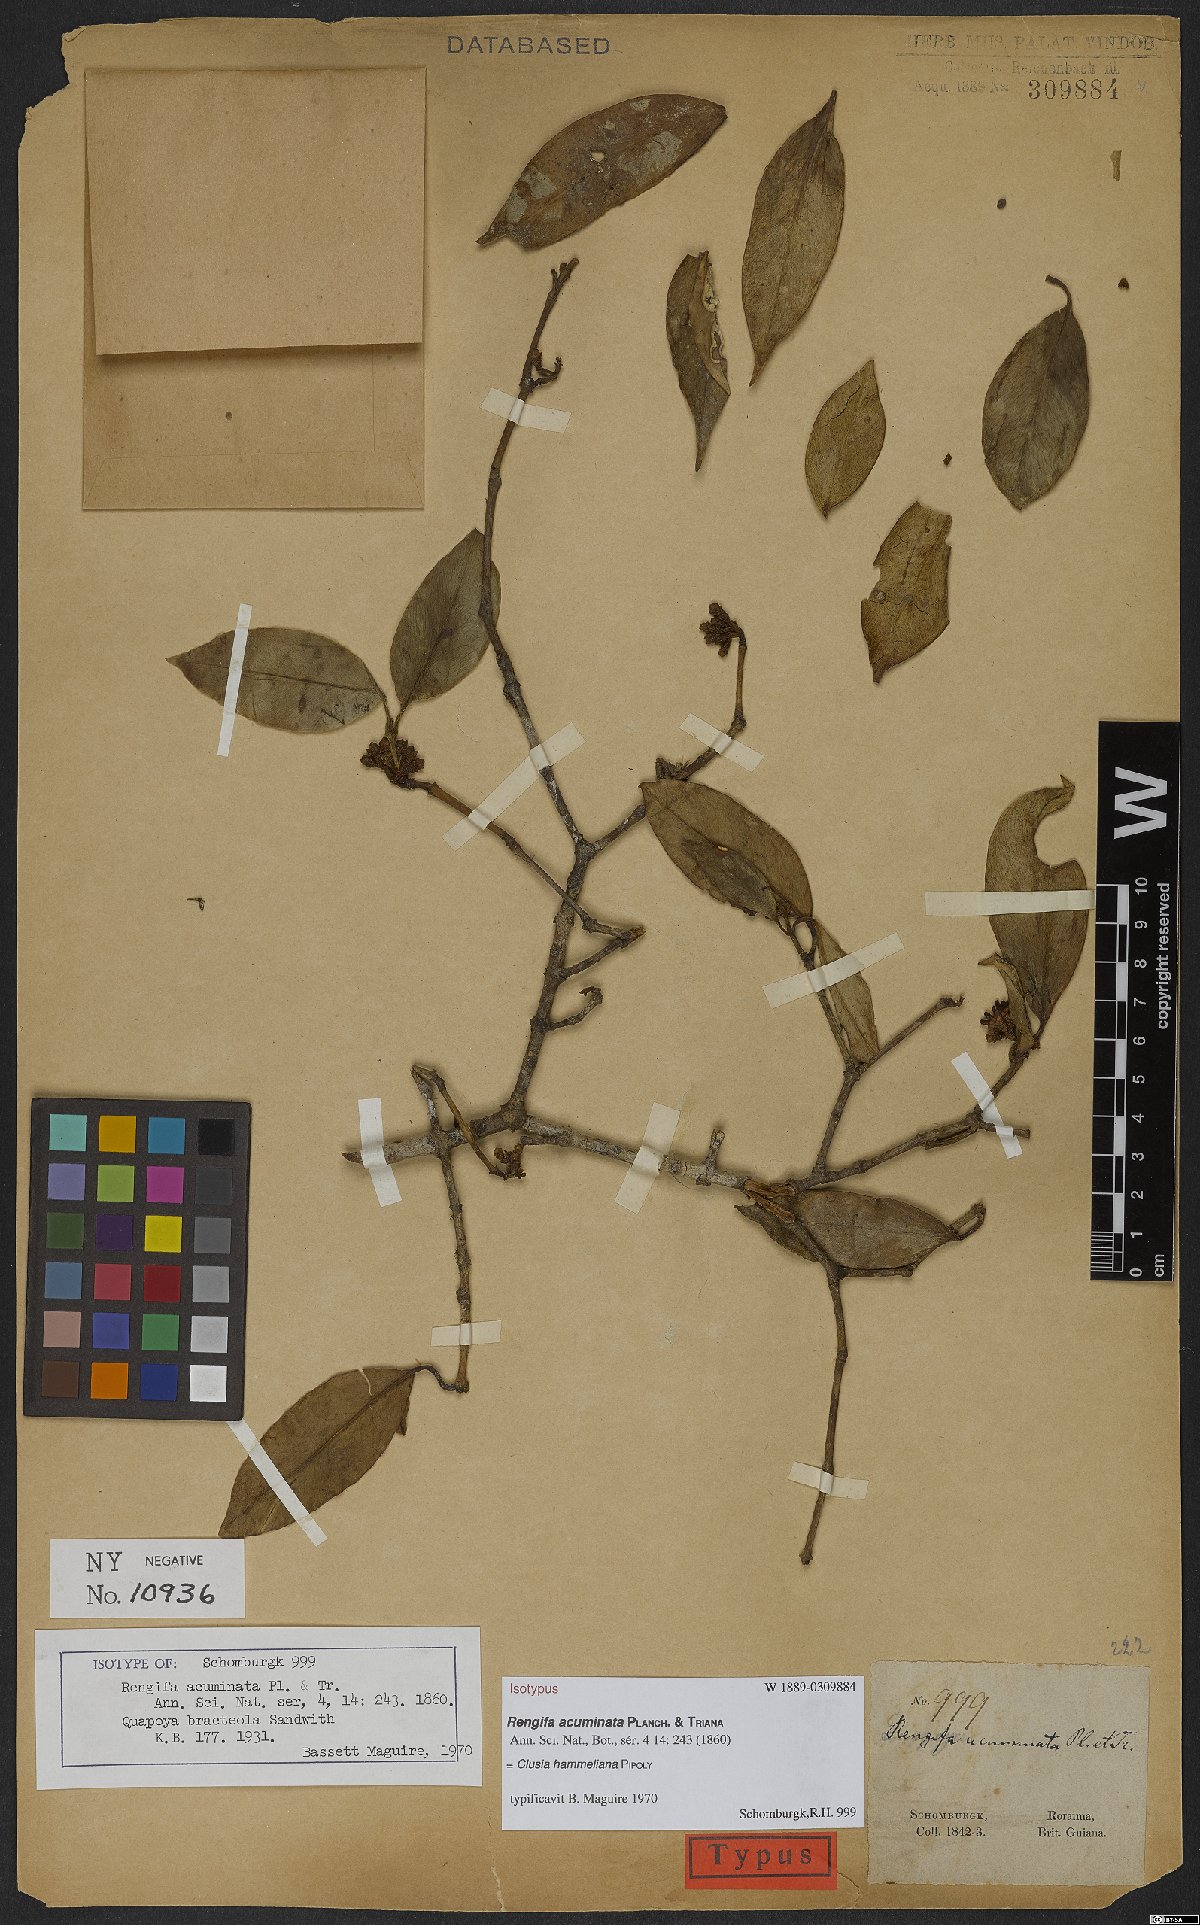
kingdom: Plantae
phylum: Tracheophyta
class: Magnoliopsida
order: Malpighiales
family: Clusiaceae
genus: Clusia
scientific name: Clusia hammeliana
